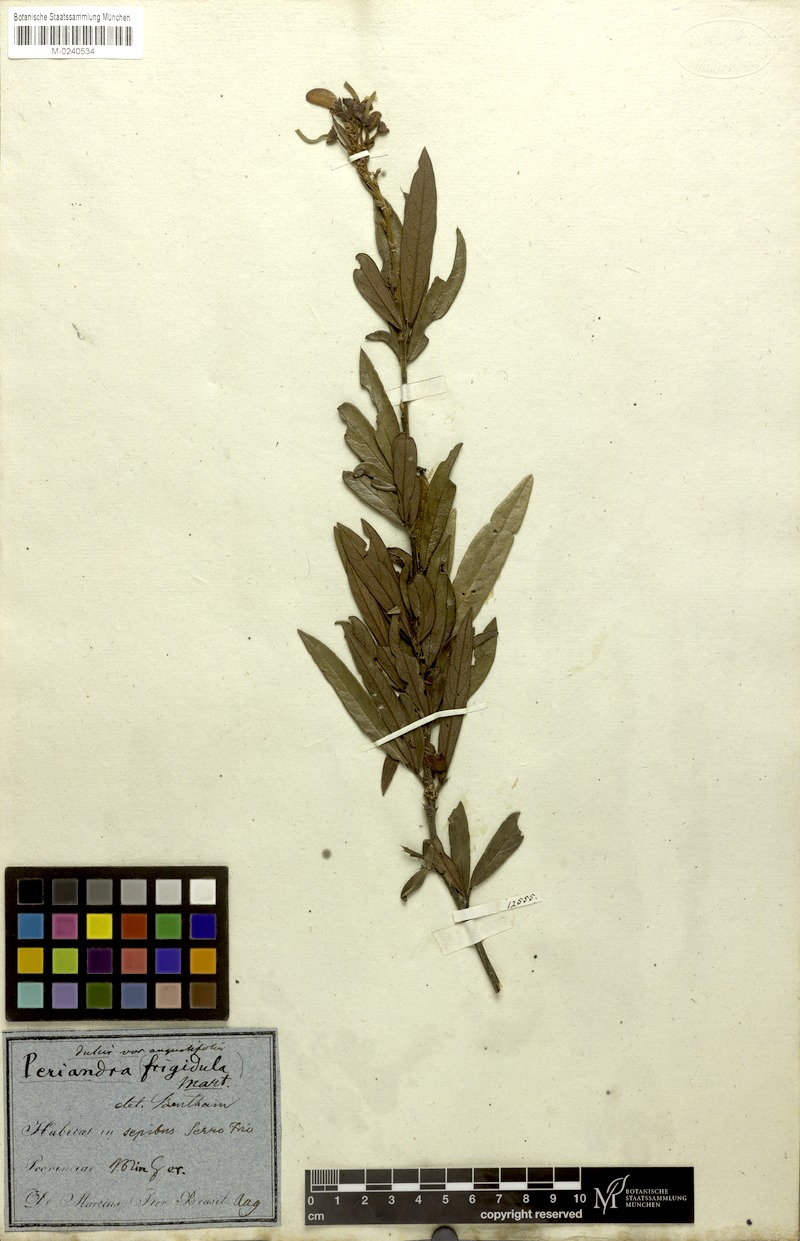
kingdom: Plantae
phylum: Tracheophyta
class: Magnoliopsida
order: Fabales
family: Fabaceae
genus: Periandra
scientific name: Periandra mediterranea
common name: Brazilian licorice
